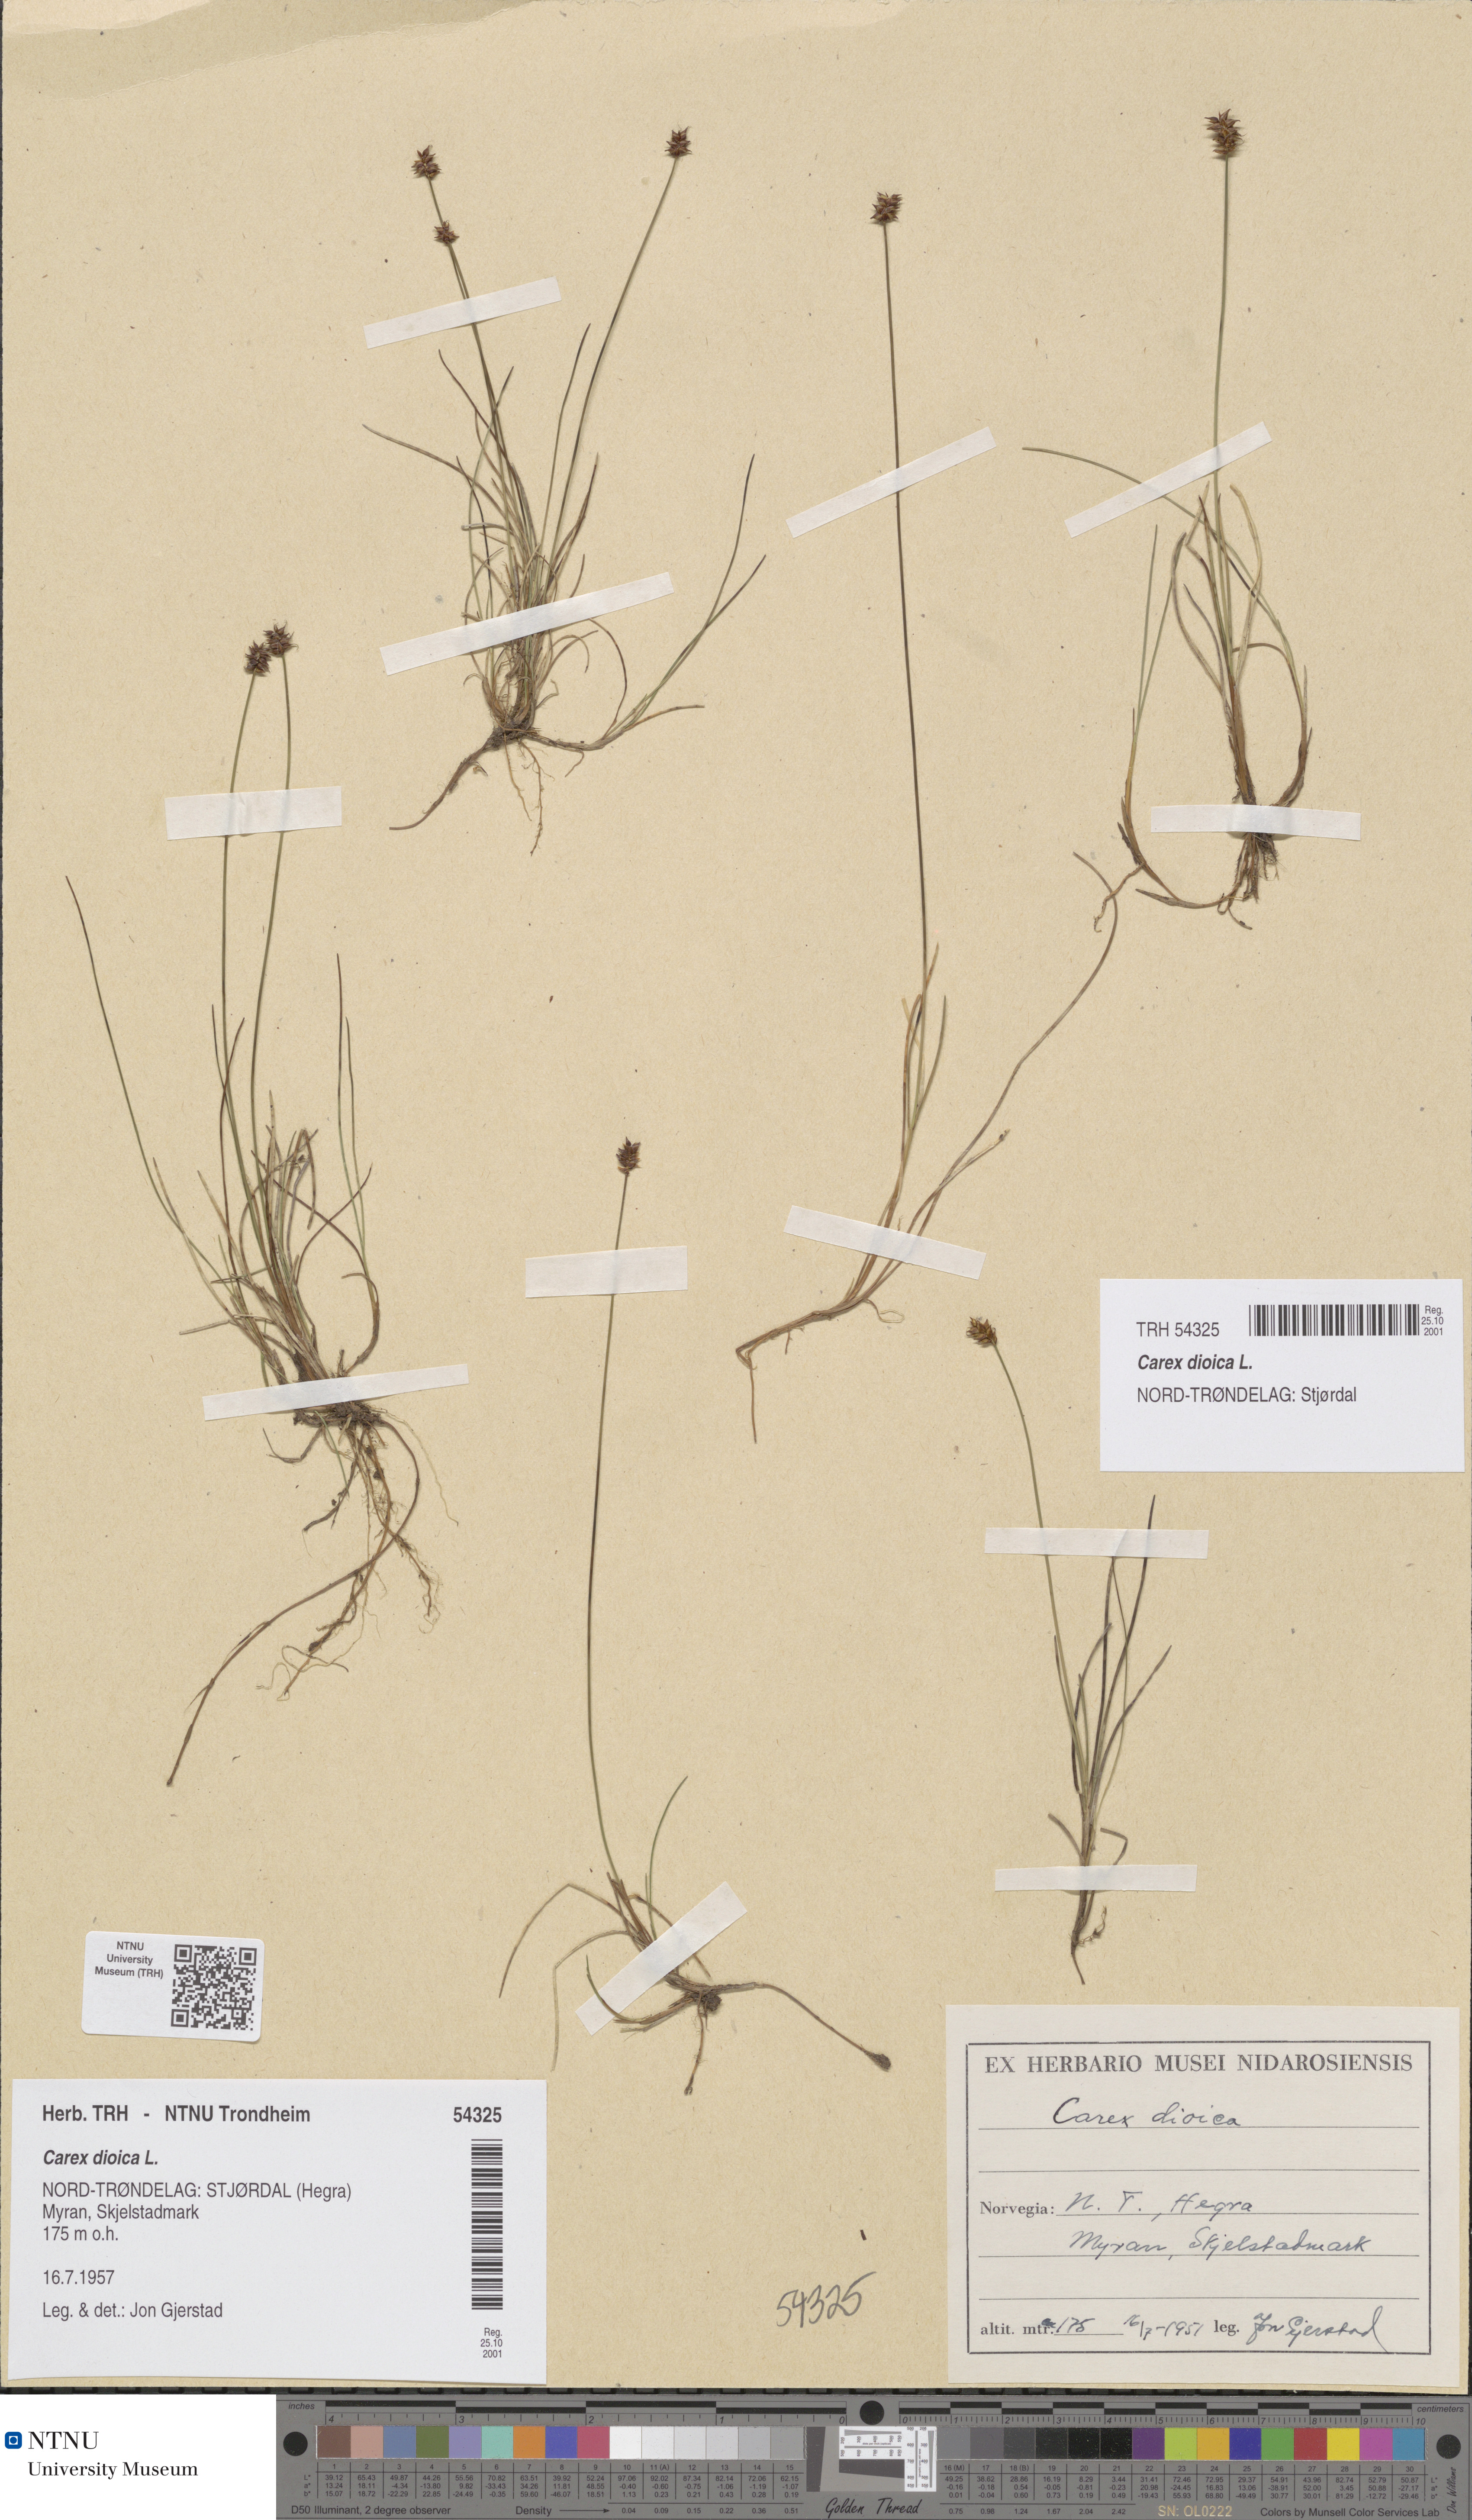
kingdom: Plantae
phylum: Tracheophyta
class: Liliopsida
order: Poales
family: Cyperaceae
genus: Carex
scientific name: Carex dioica
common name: Dioecious sedge
